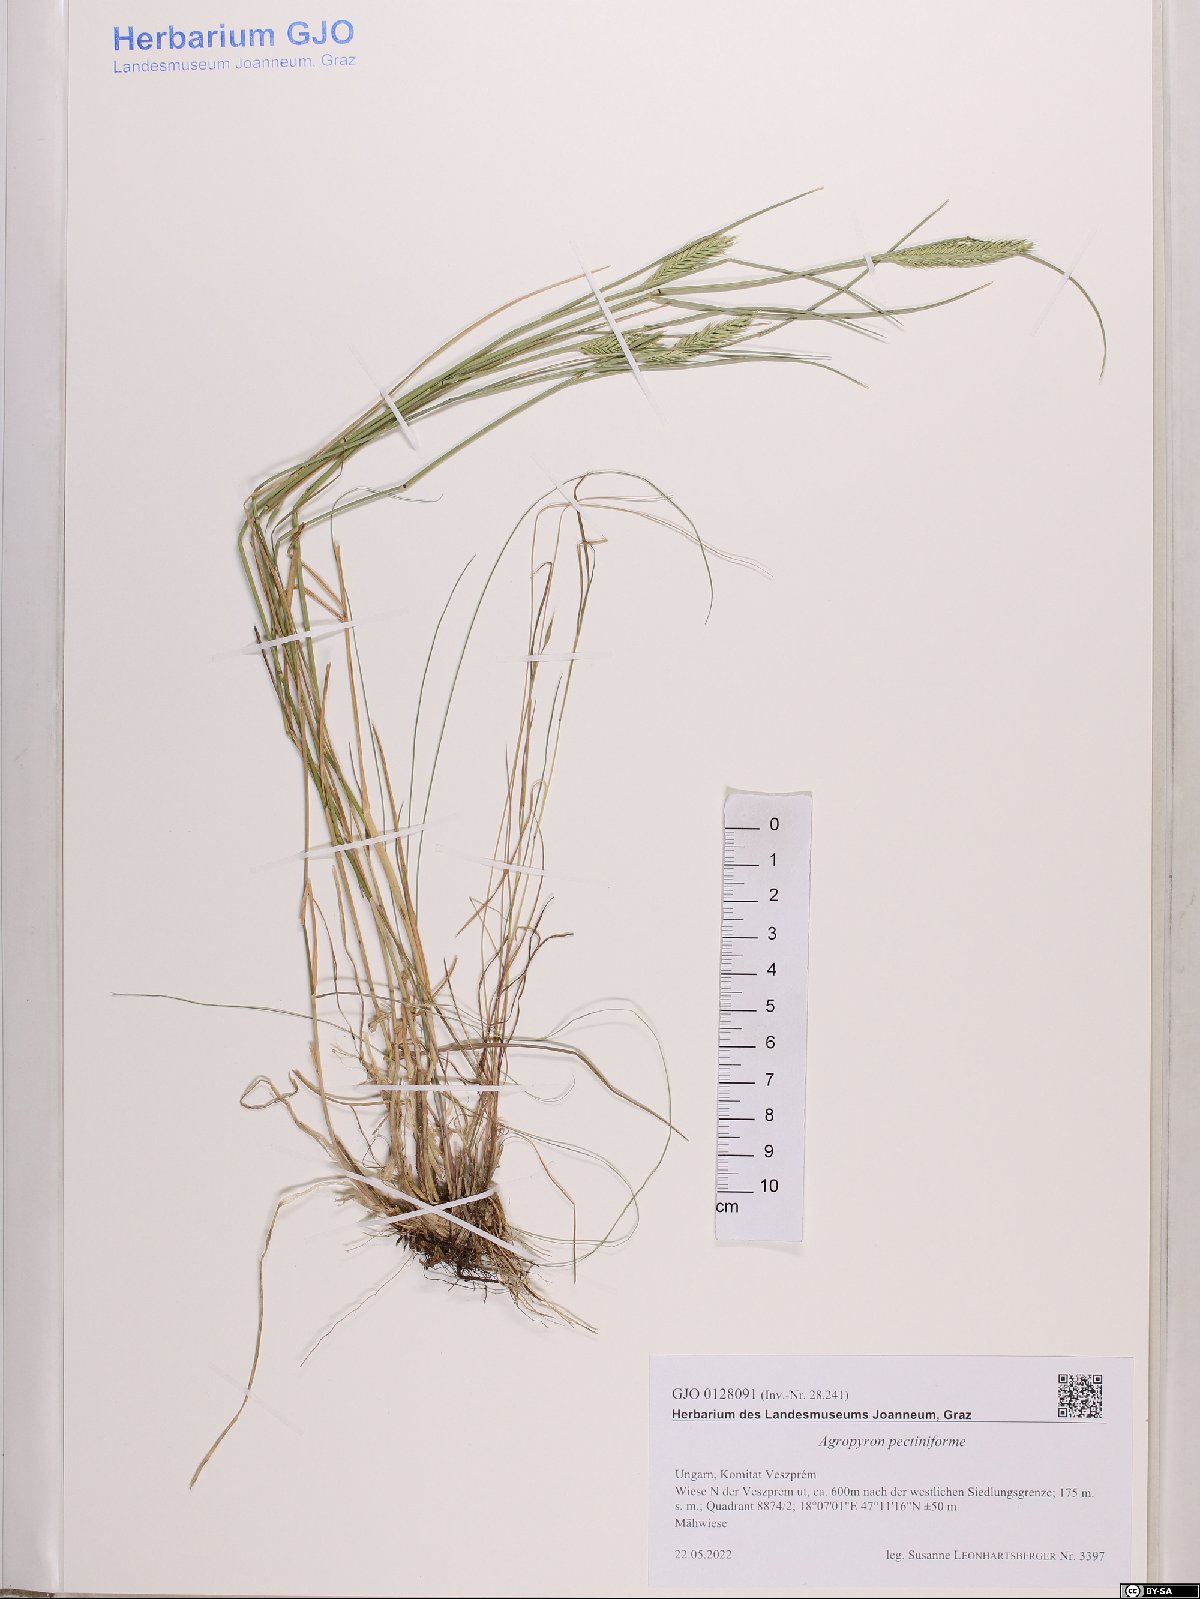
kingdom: Plantae
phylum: Tracheophyta
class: Liliopsida
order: Poales
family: Poaceae
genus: Agropyron
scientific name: Agropyron cristatum
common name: Crested wheatgrass
